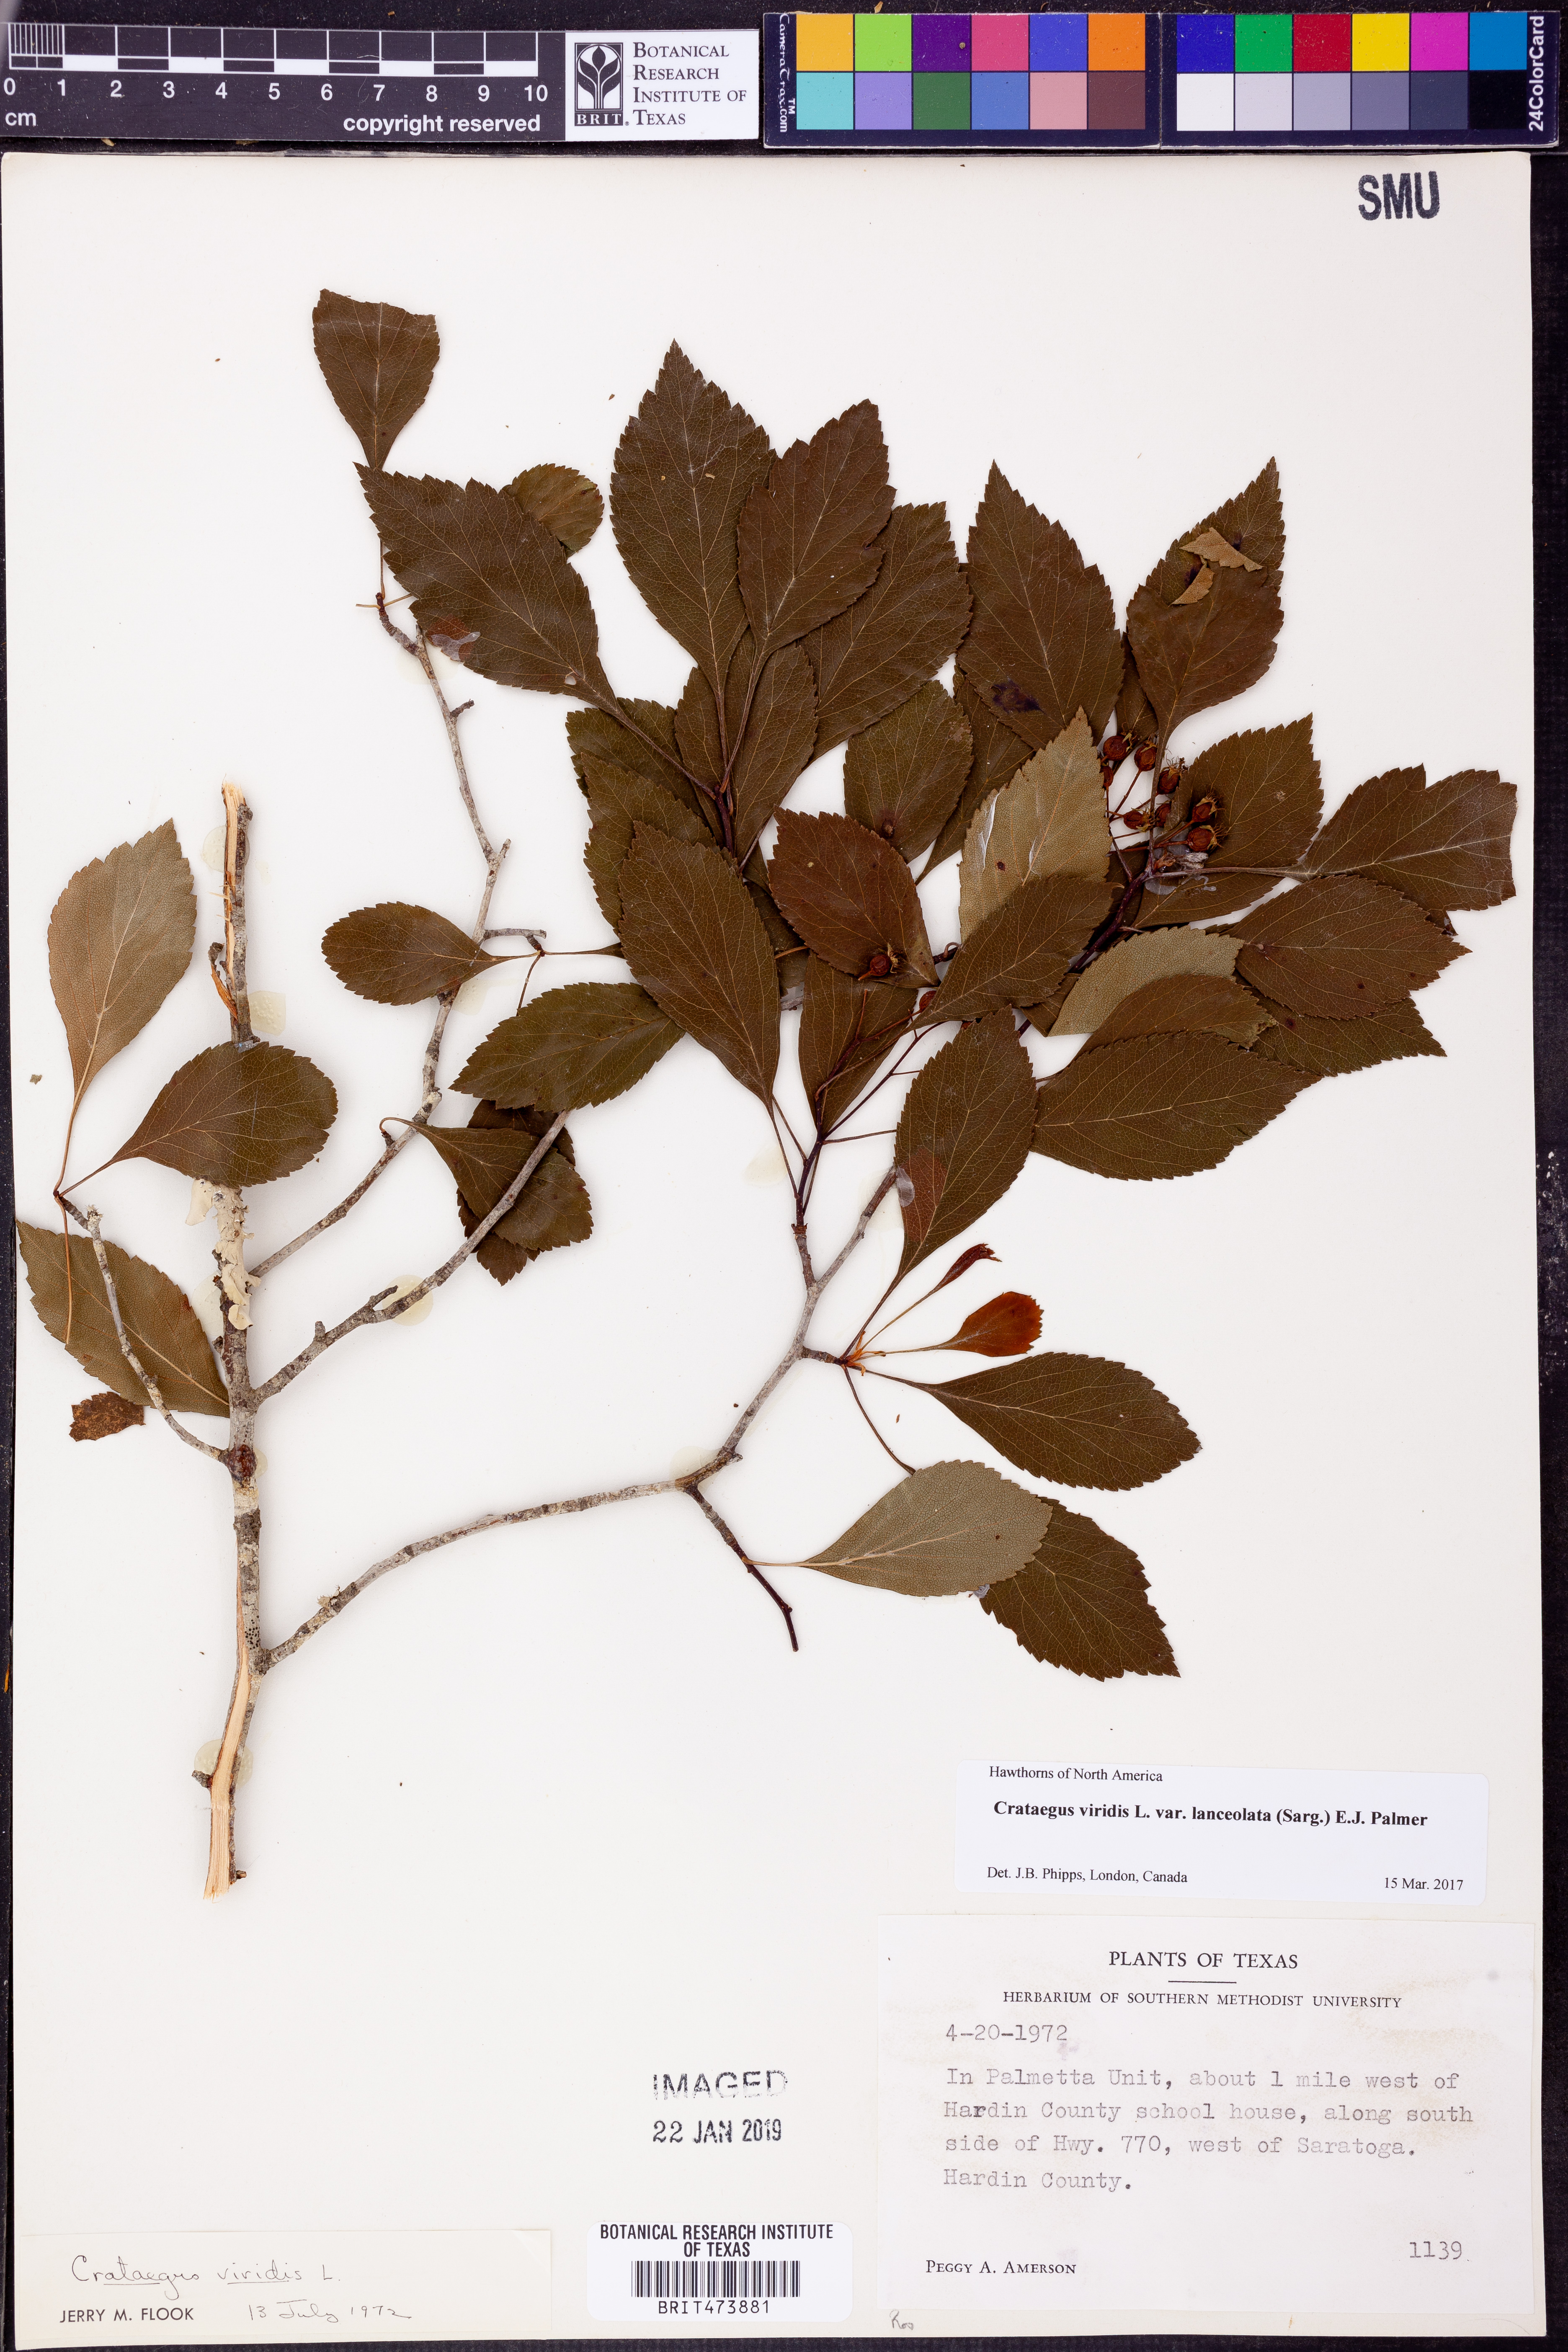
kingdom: Plantae
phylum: Tracheophyta
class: Magnoliopsida
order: Rosales
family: Rosaceae
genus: Crataegus
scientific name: Crataegus viridis
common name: Southernthorn
